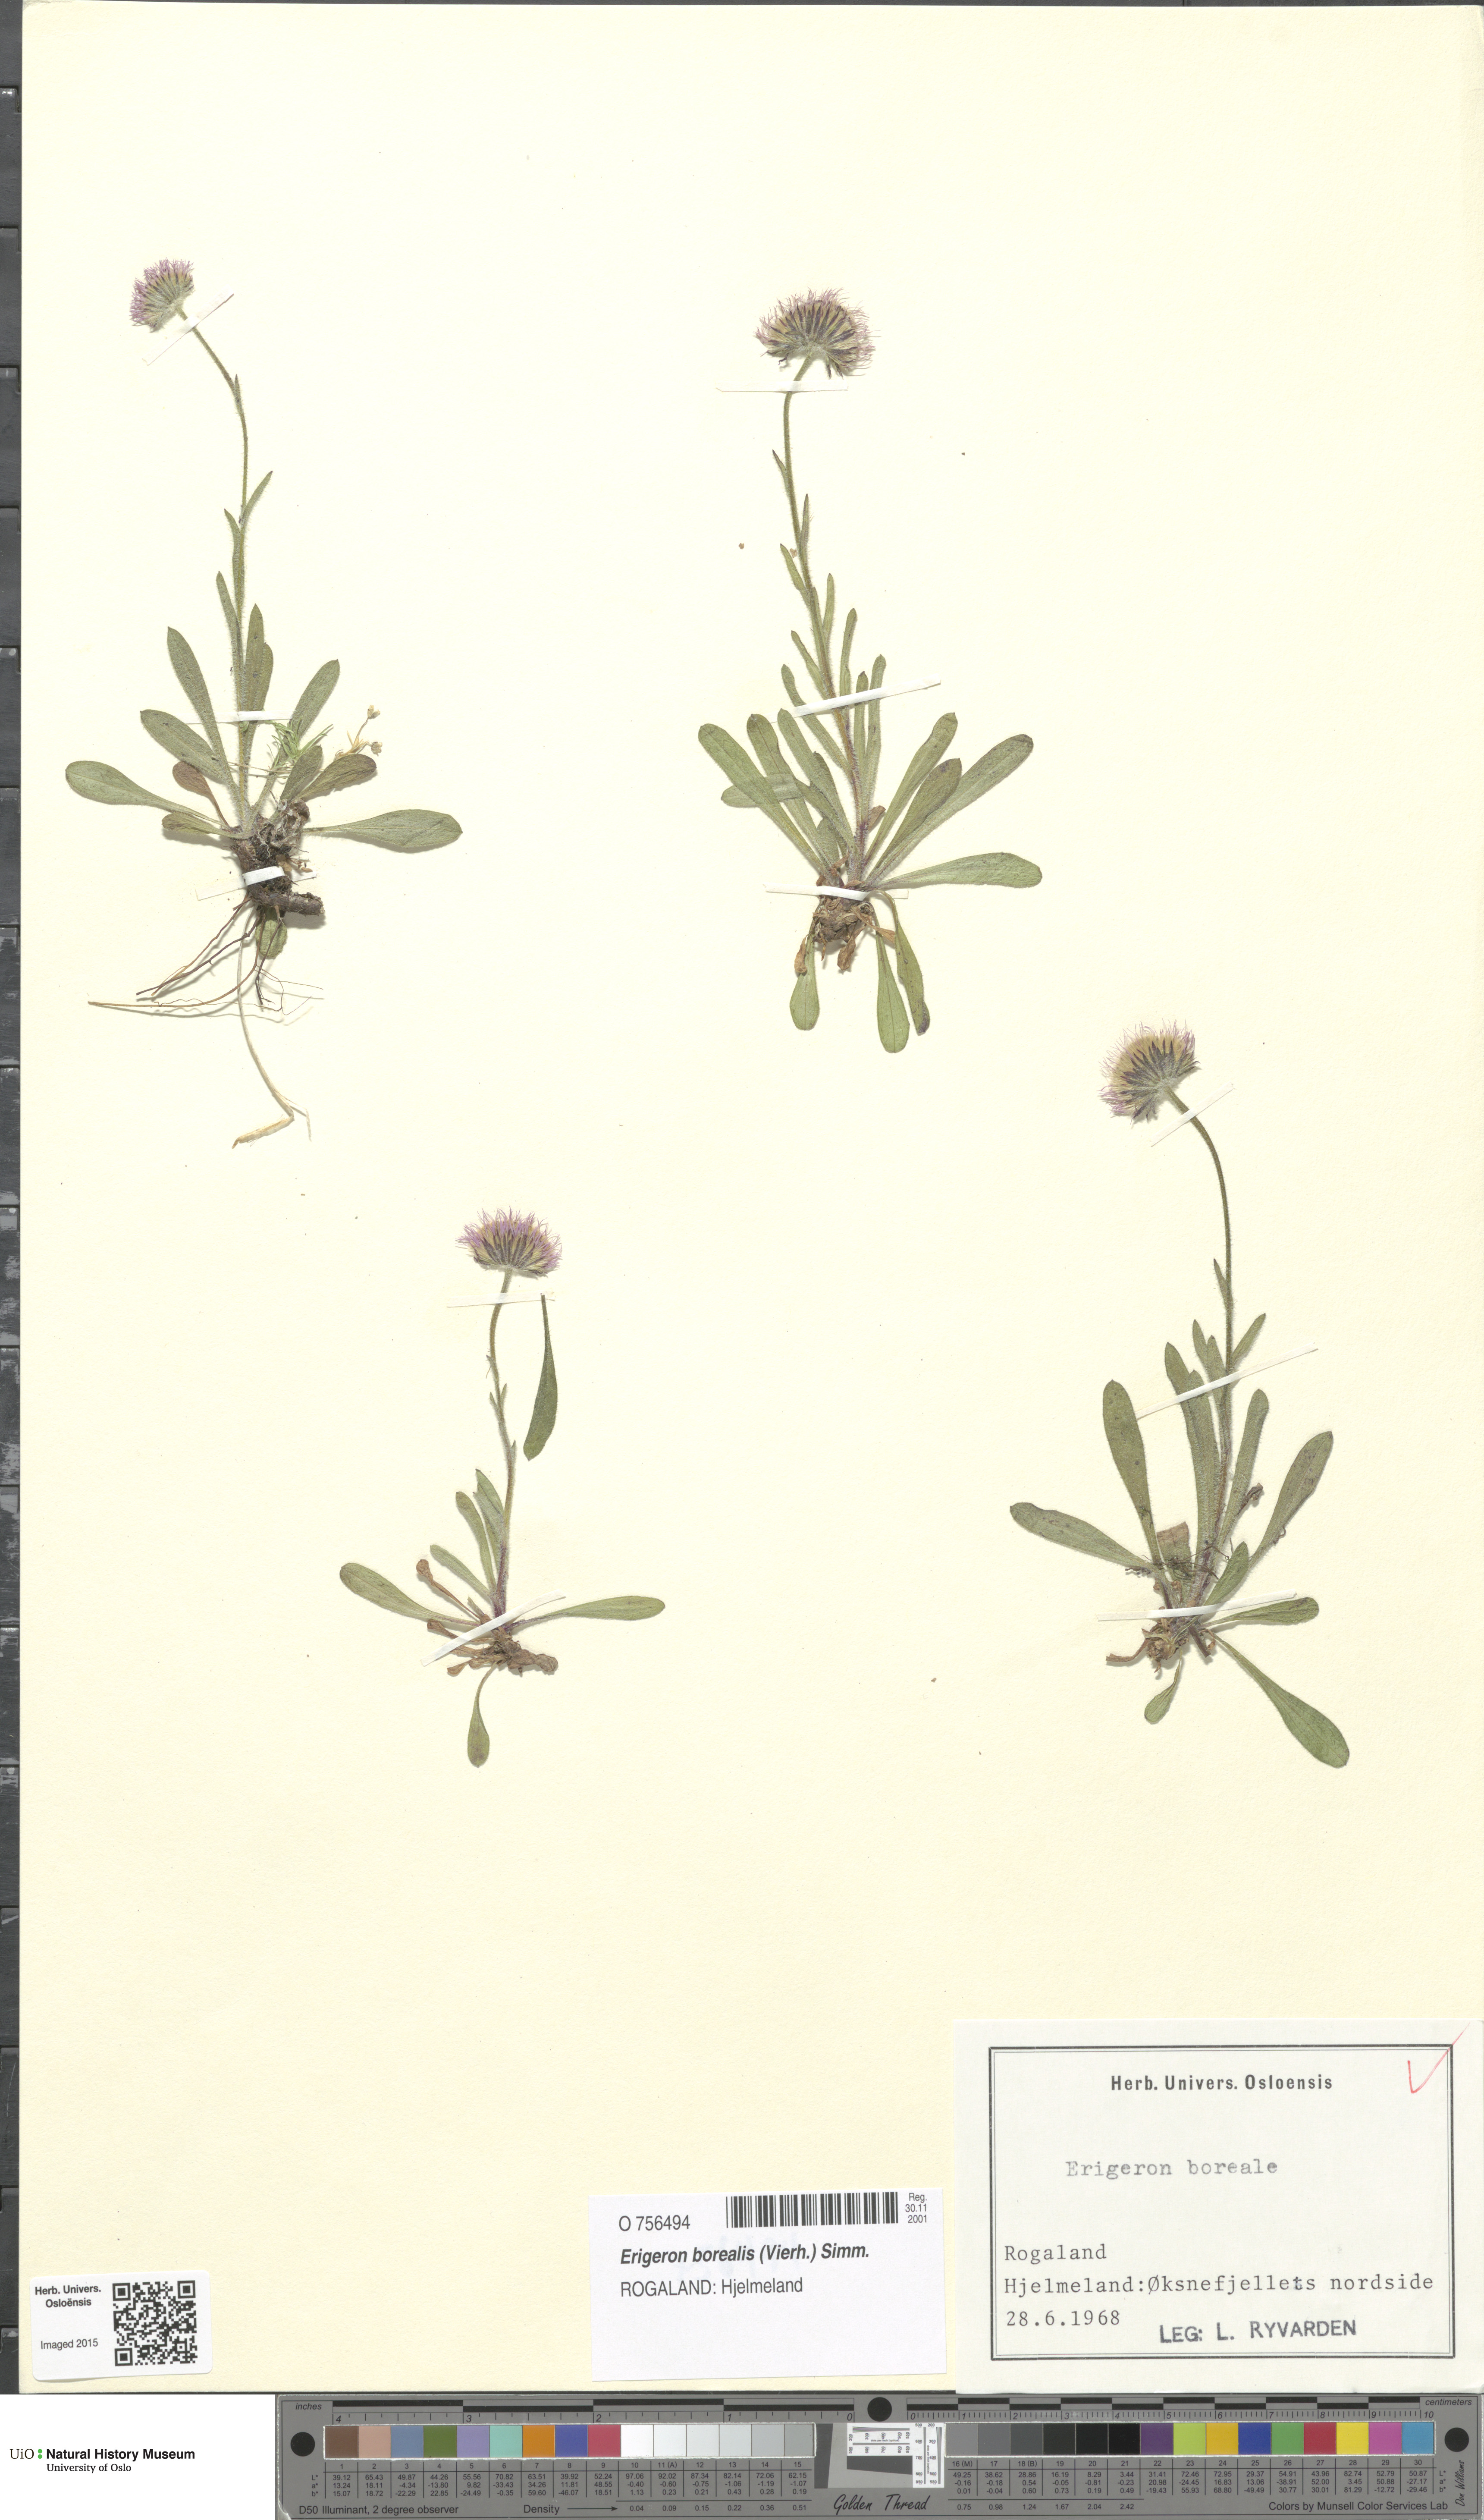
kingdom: Plantae
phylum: Tracheophyta
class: Magnoliopsida
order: Asterales
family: Asteraceae
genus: Erigeron
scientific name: Erigeron borealis
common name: Alpine fleabane
